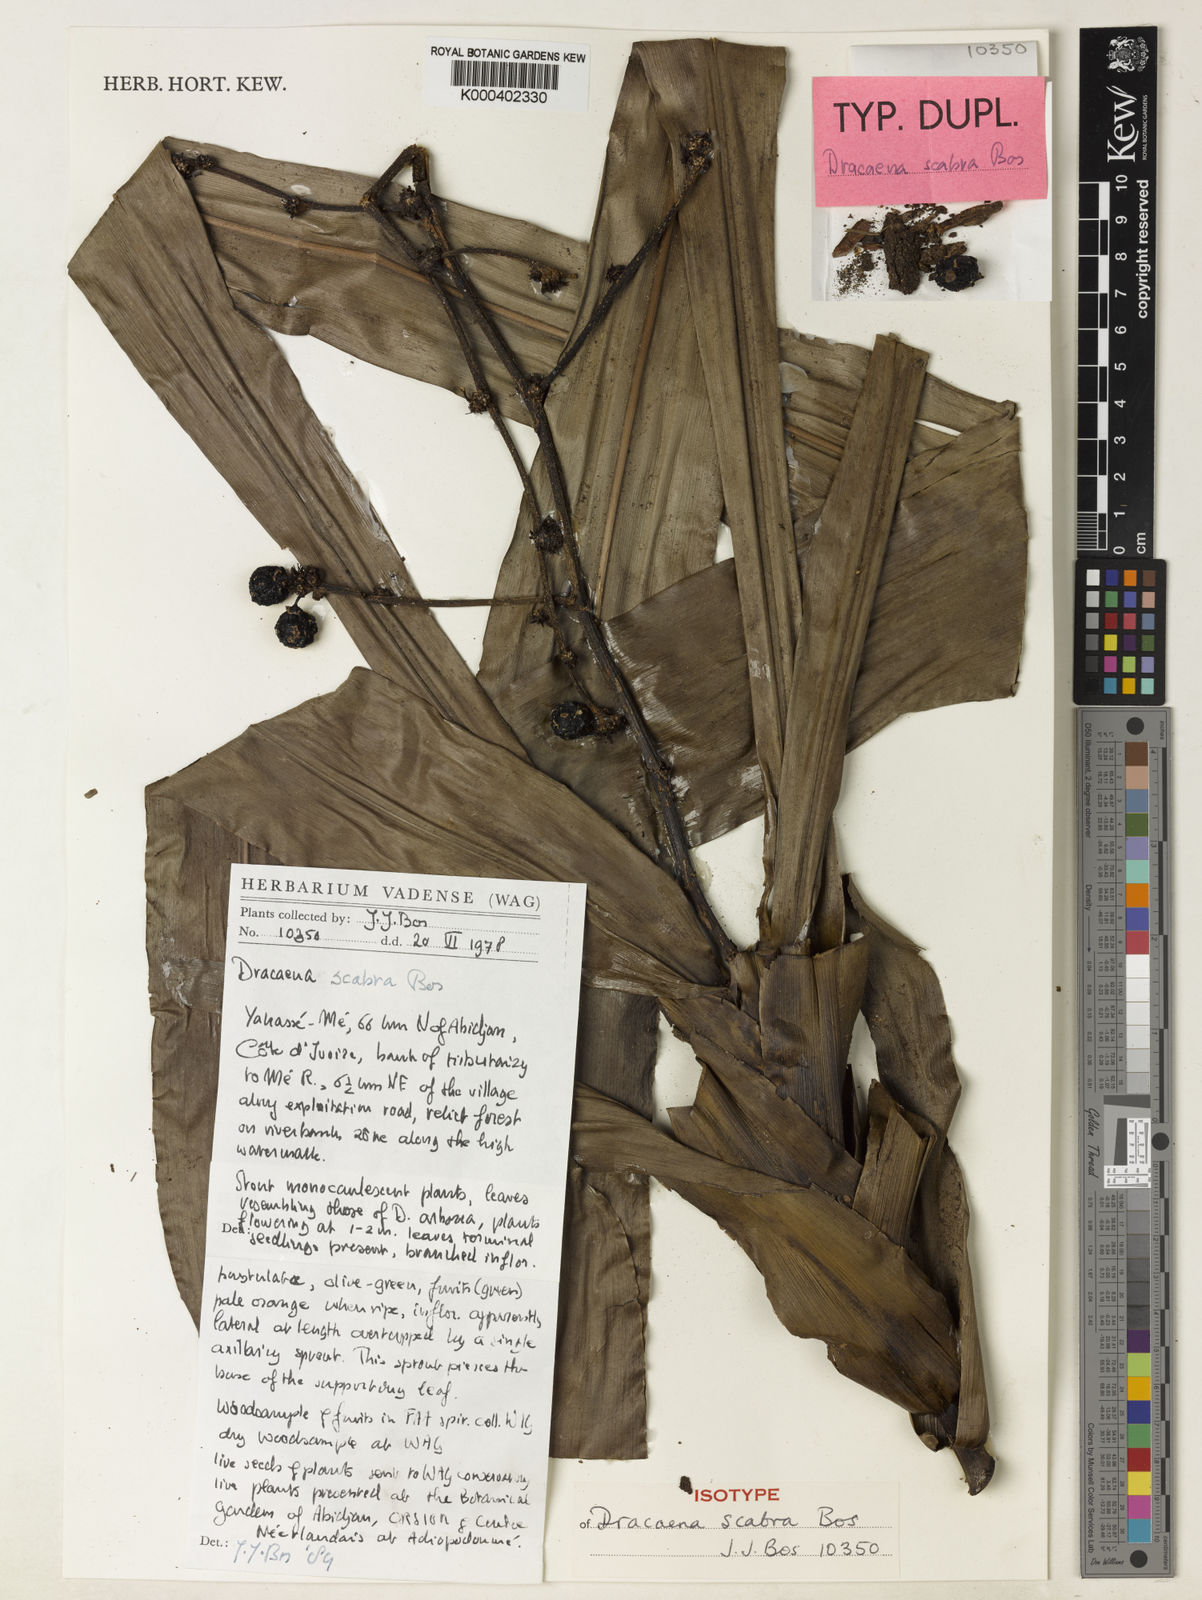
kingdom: Plantae
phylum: Tracheophyta
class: Liliopsida
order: Asparagales
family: Asparagaceae
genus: Dracaena
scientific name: Dracaena scabra
